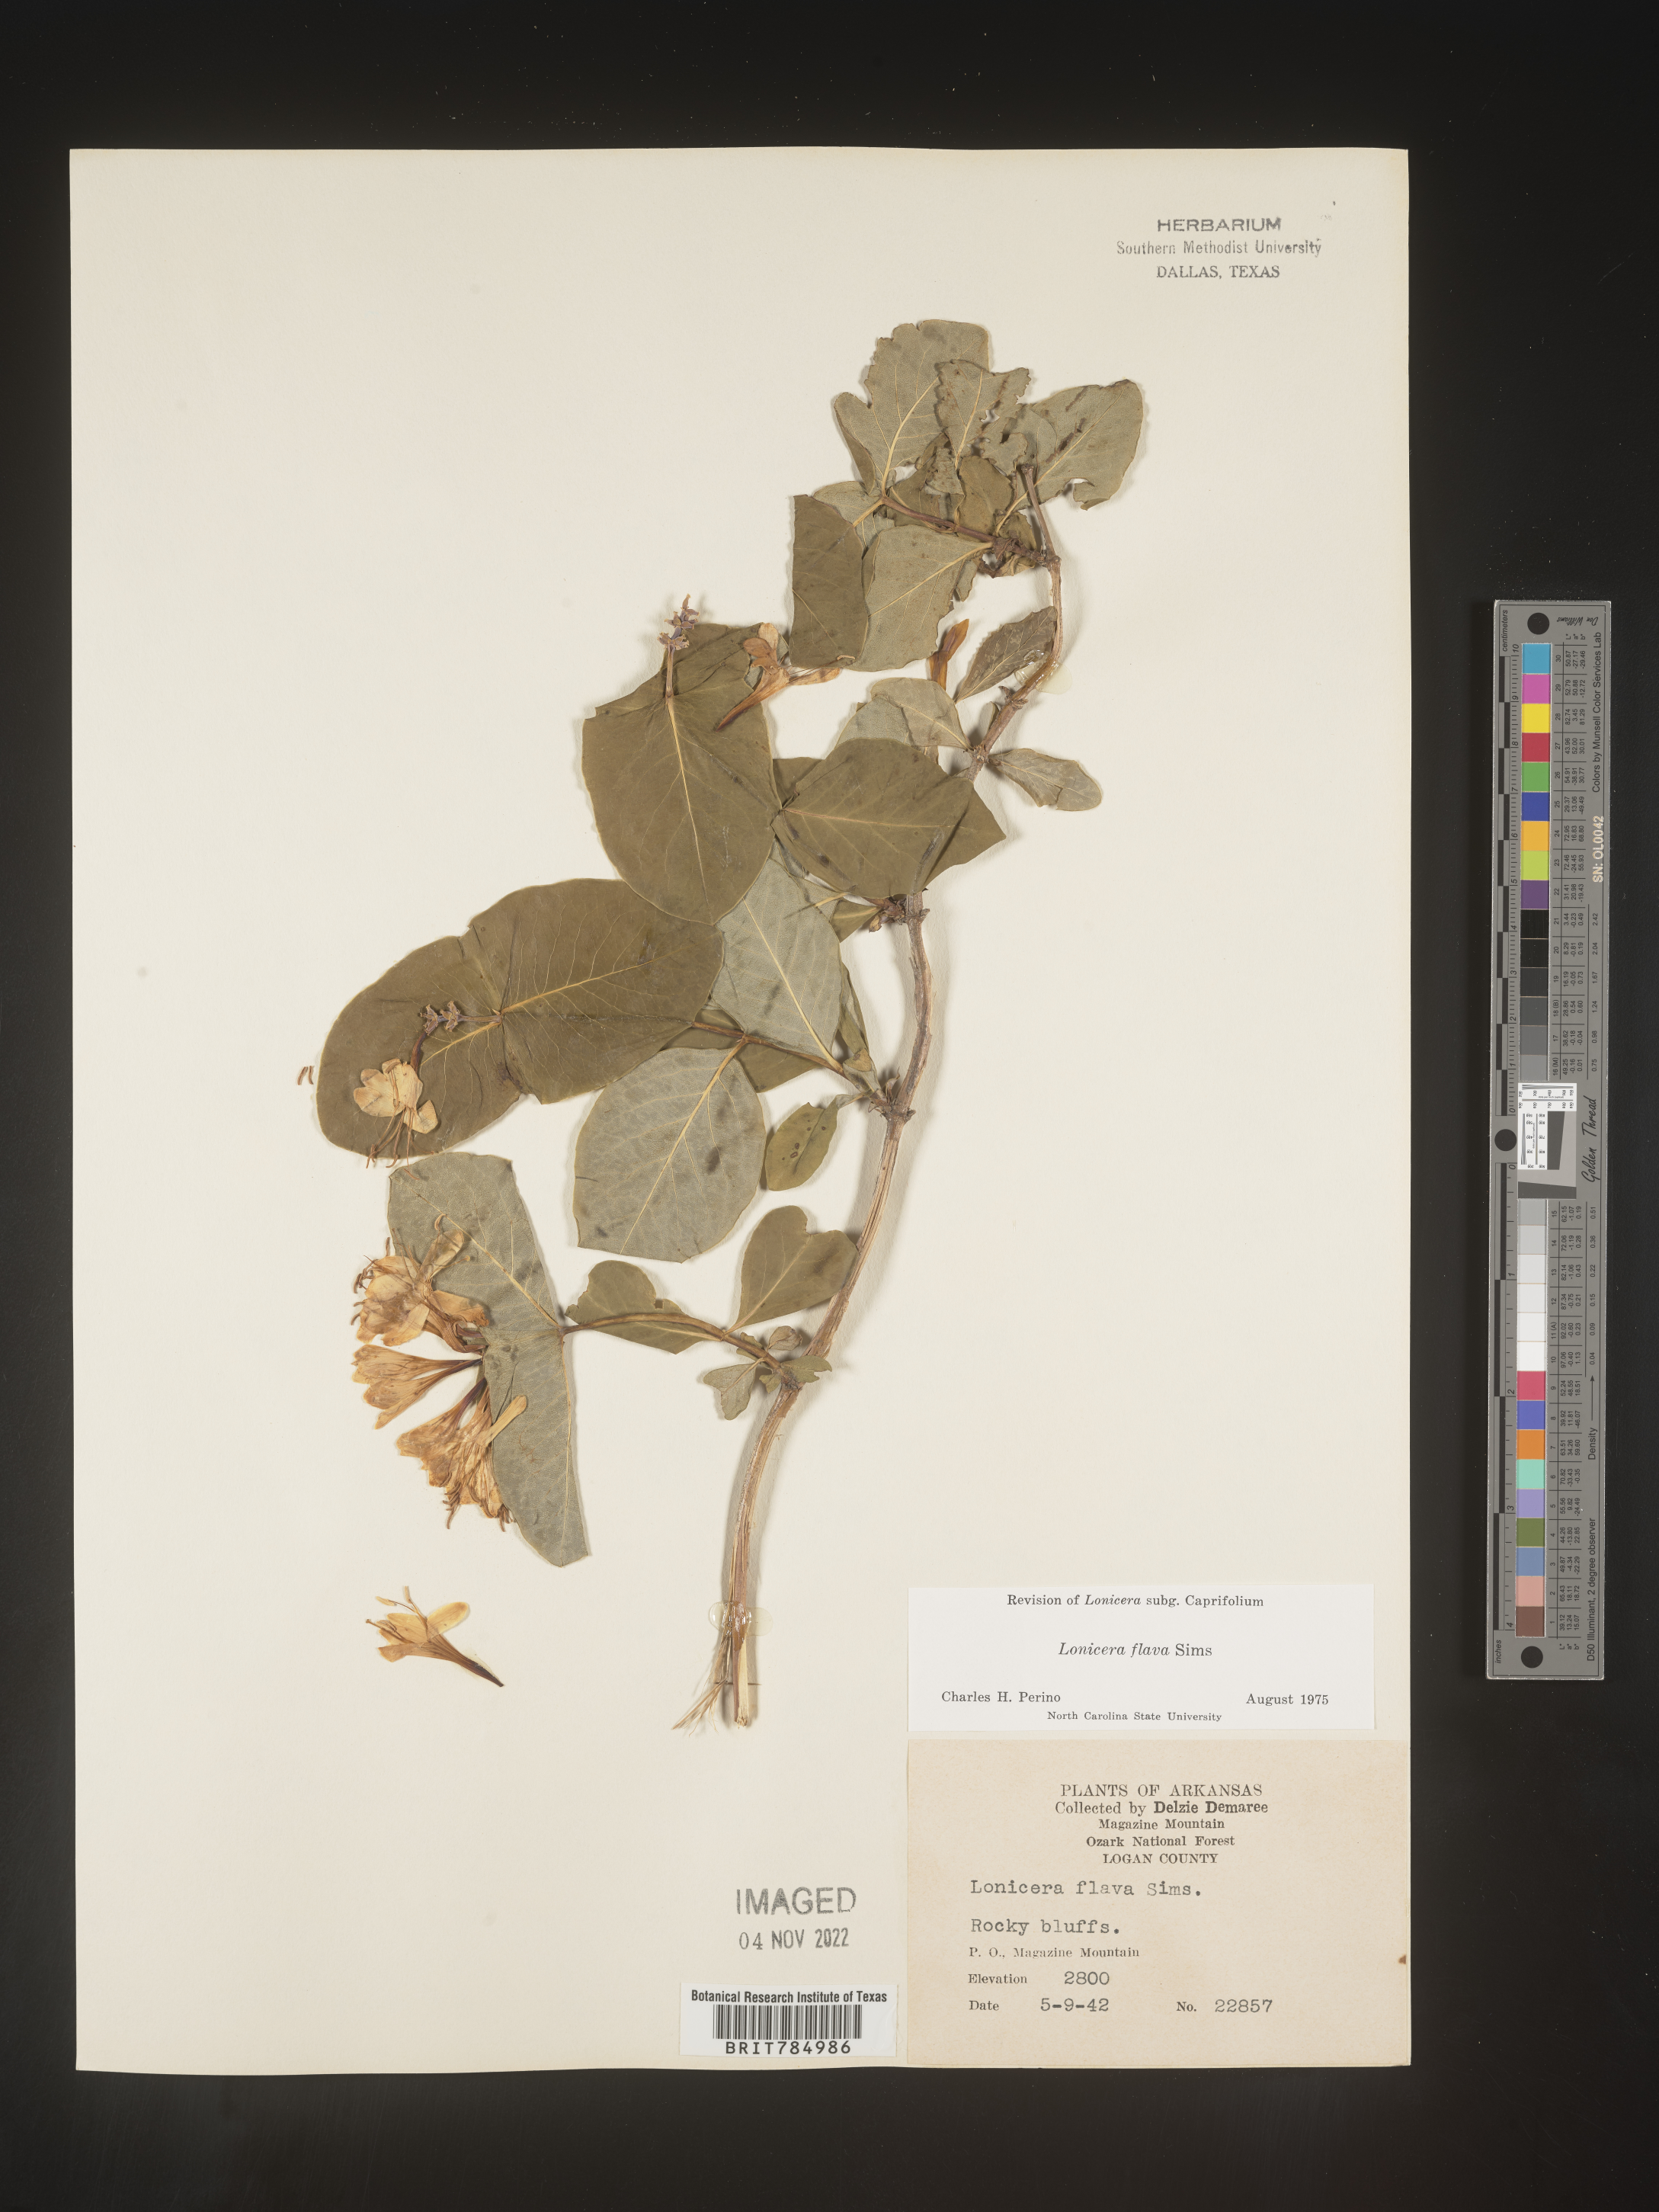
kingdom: Plantae
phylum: Tracheophyta
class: Magnoliopsida
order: Dipsacales
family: Caprifoliaceae
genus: Lonicera
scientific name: Lonicera flava
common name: Yellow honeysuckle
